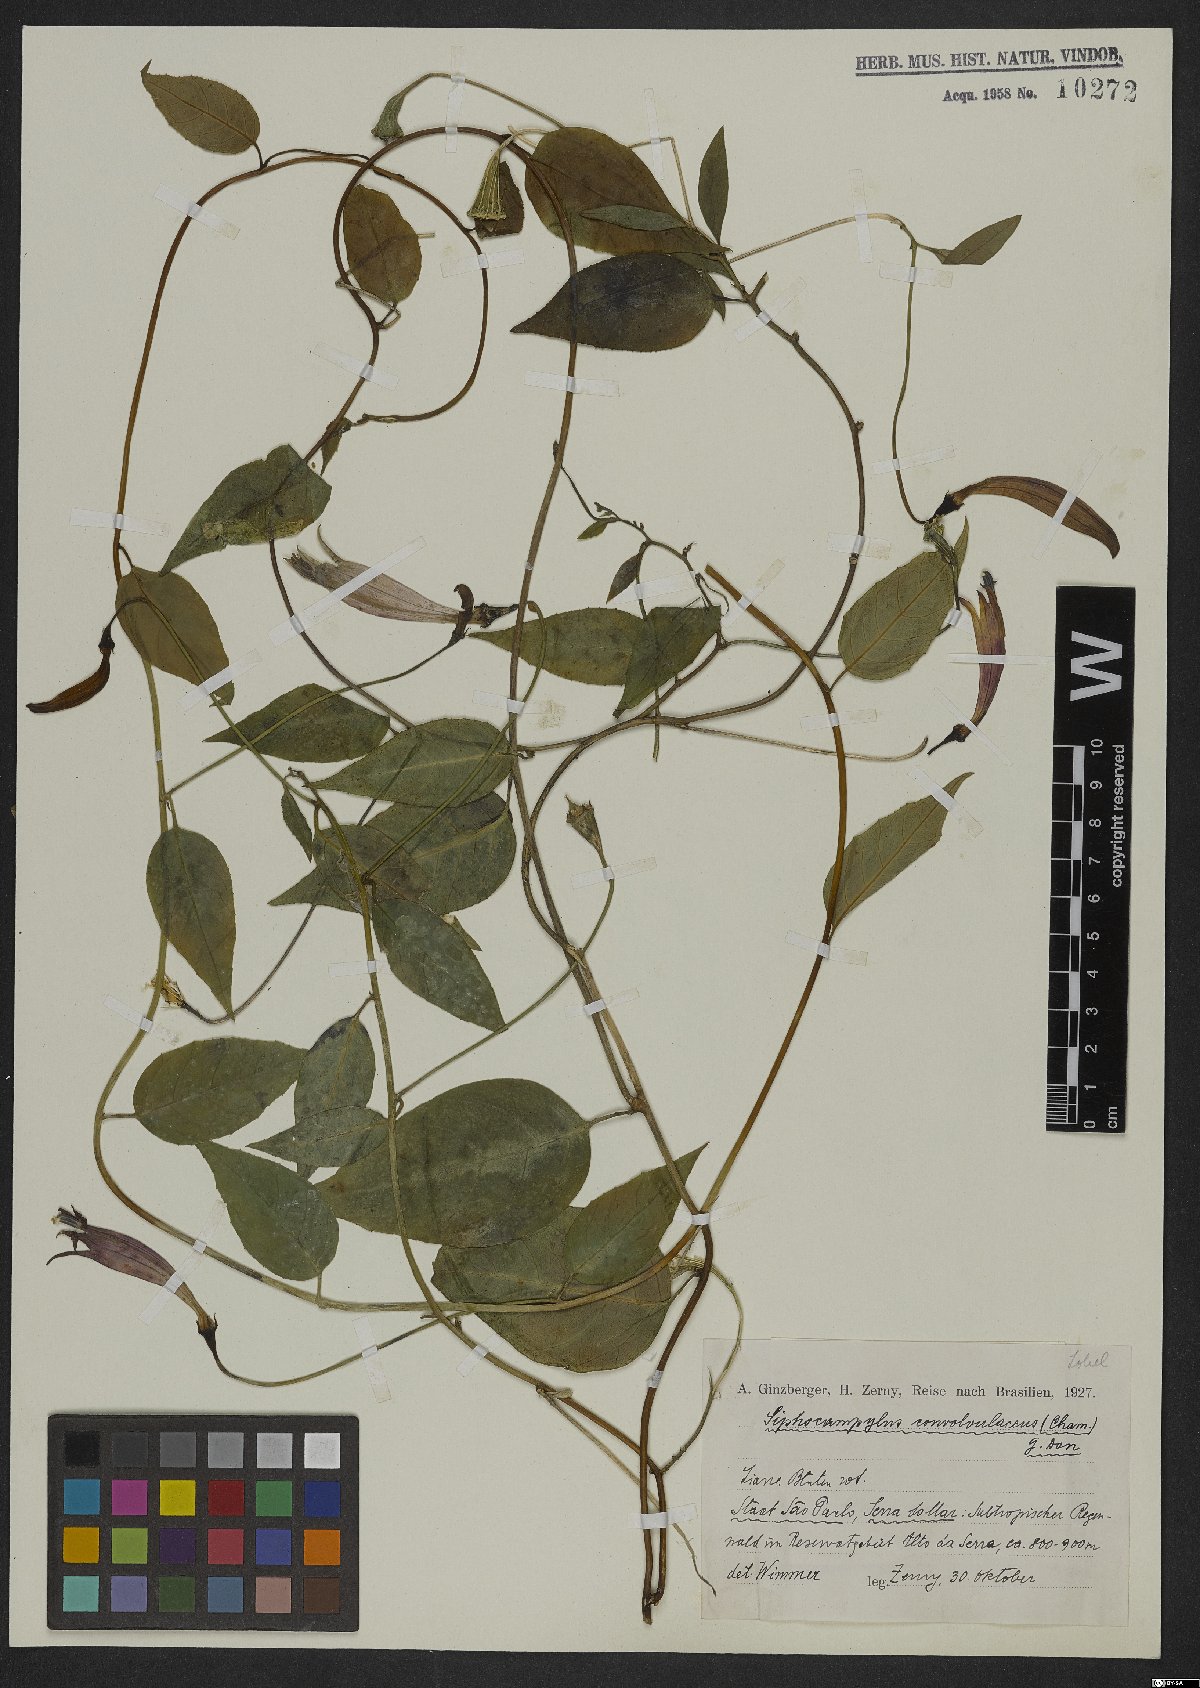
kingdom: Plantae
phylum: Tracheophyta
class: Magnoliopsida
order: Asterales
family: Campanulaceae
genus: Siphocampylus
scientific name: Siphocampylus convolvulaceus
